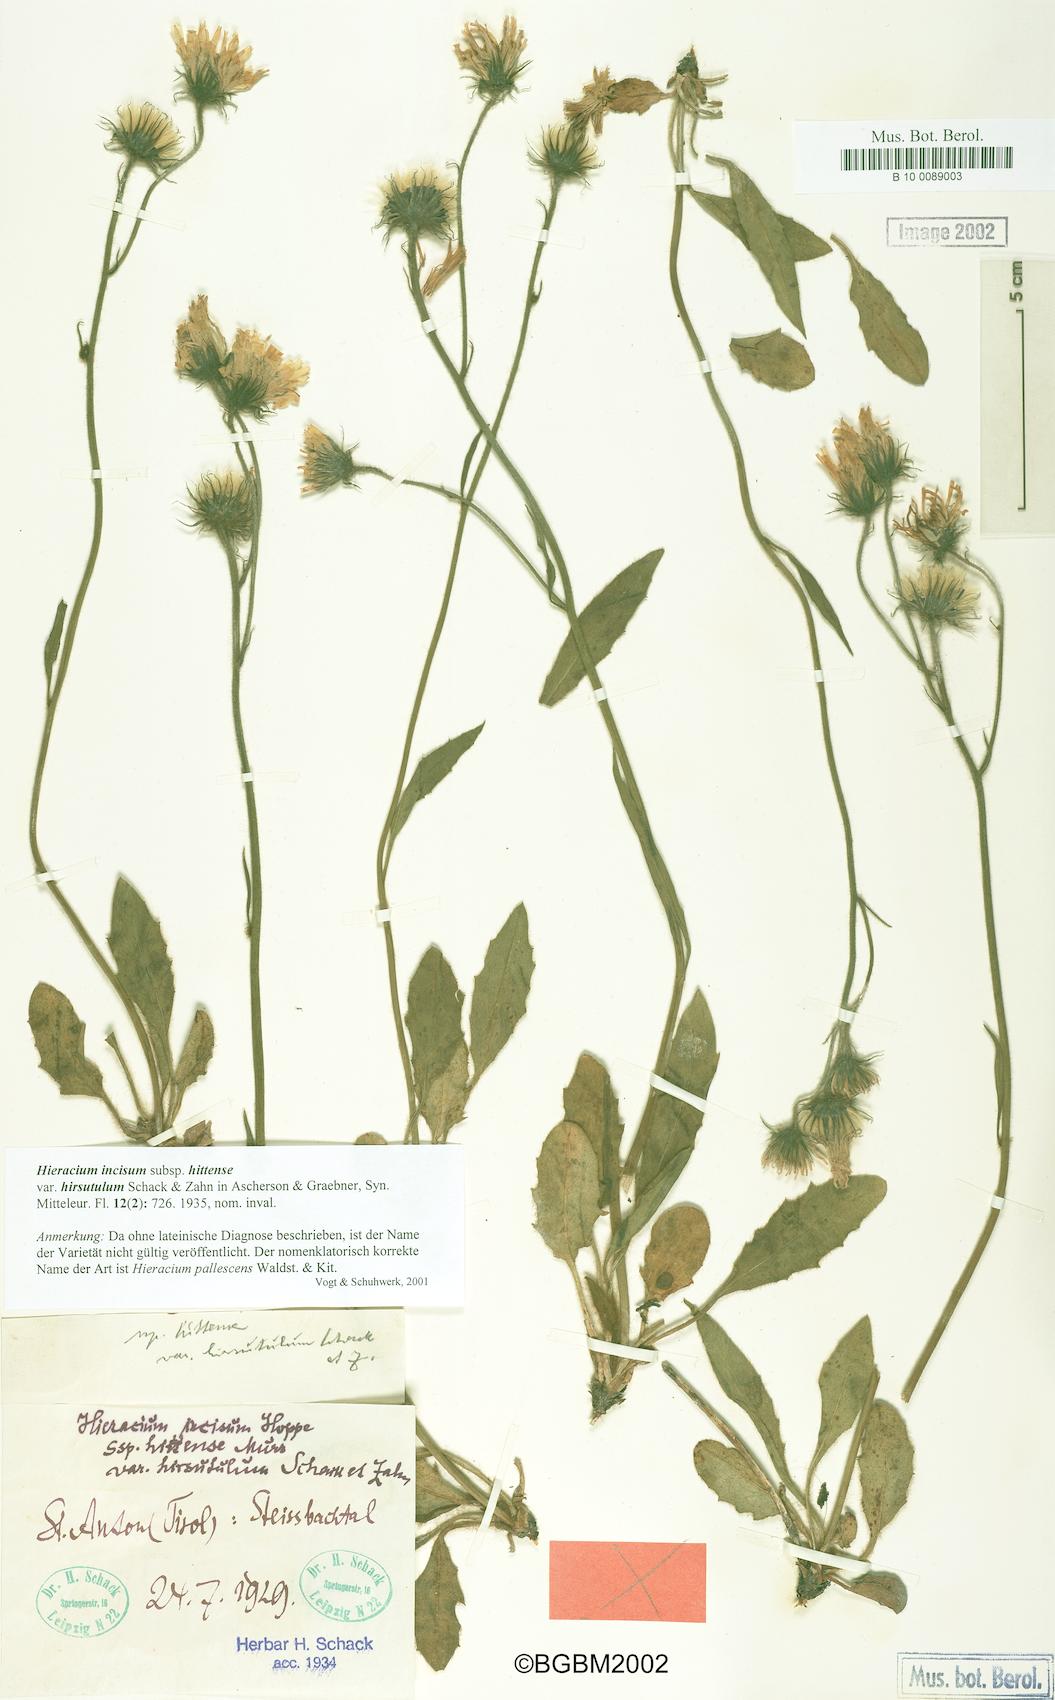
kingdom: Plantae
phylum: Tracheophyta
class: Magnoliopsida
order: Asterales
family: Asteraceae
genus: Hieracium
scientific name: Hieracium incisum
